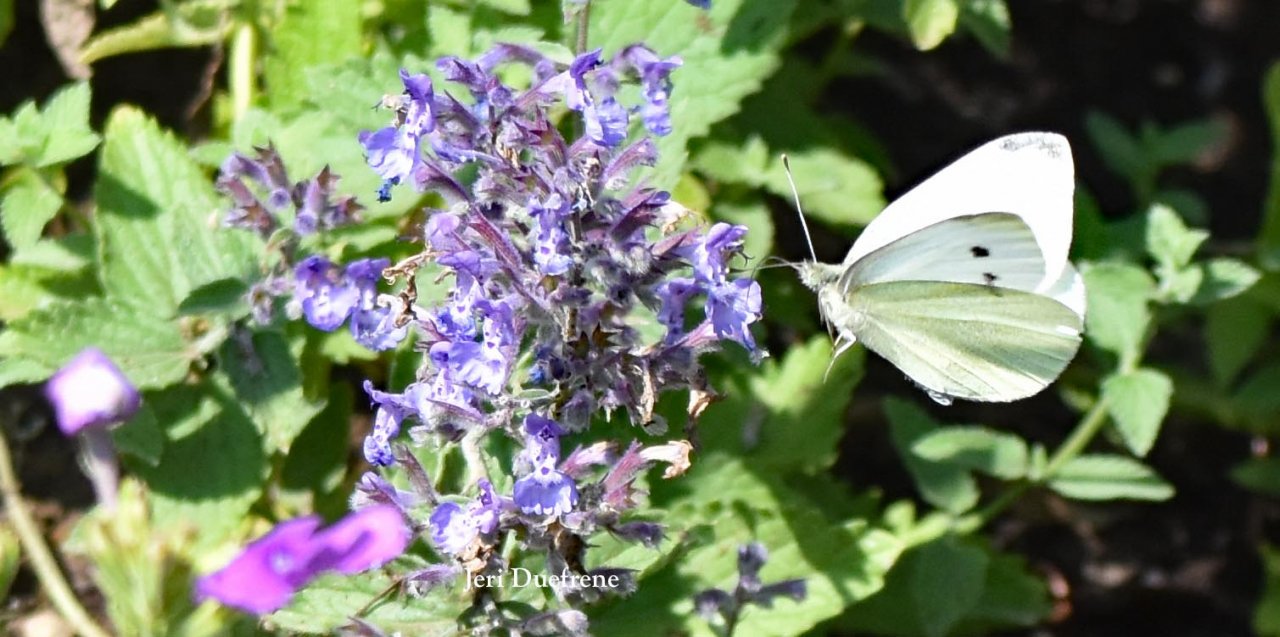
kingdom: Animalia
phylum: Arthropoda
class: Insecta
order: Lepidoptera
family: Pieridae
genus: Pieris
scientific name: Pieris rapae
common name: Cabbage White
